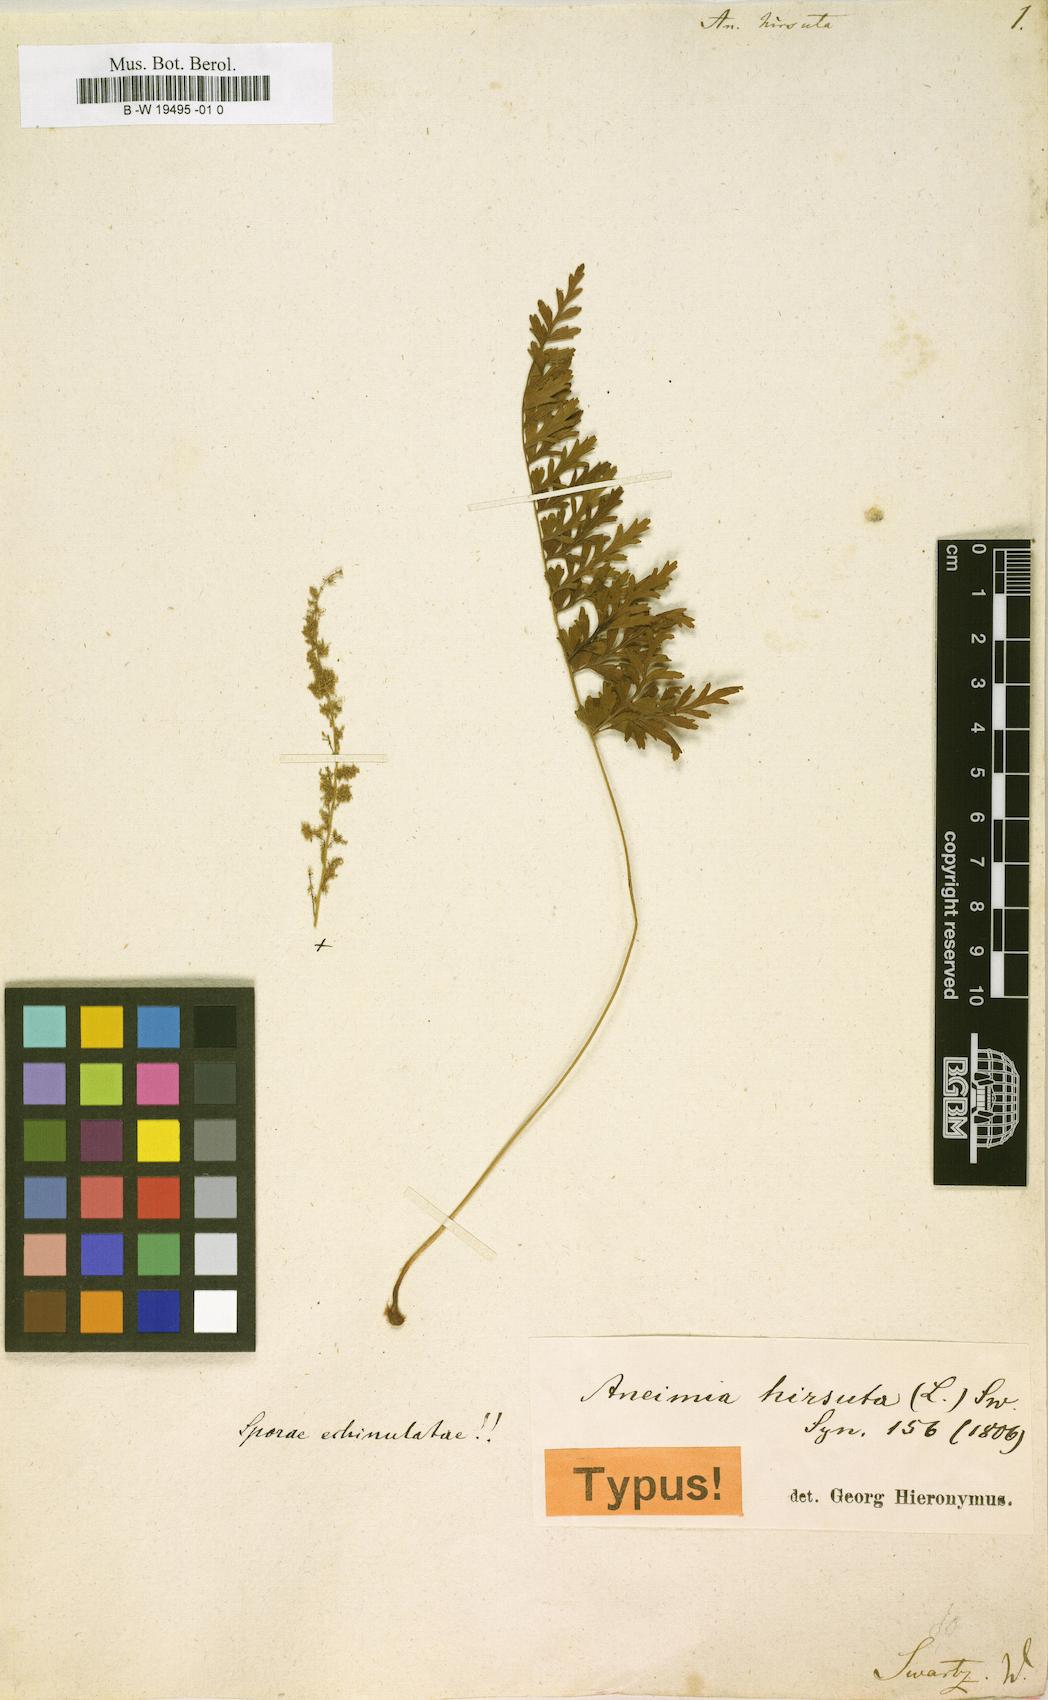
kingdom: Plantae
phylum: Tracheophyta
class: Polypodiopsida
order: Schizaeales
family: Anemiaceae
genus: Anemia
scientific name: Anemia hirsuta
